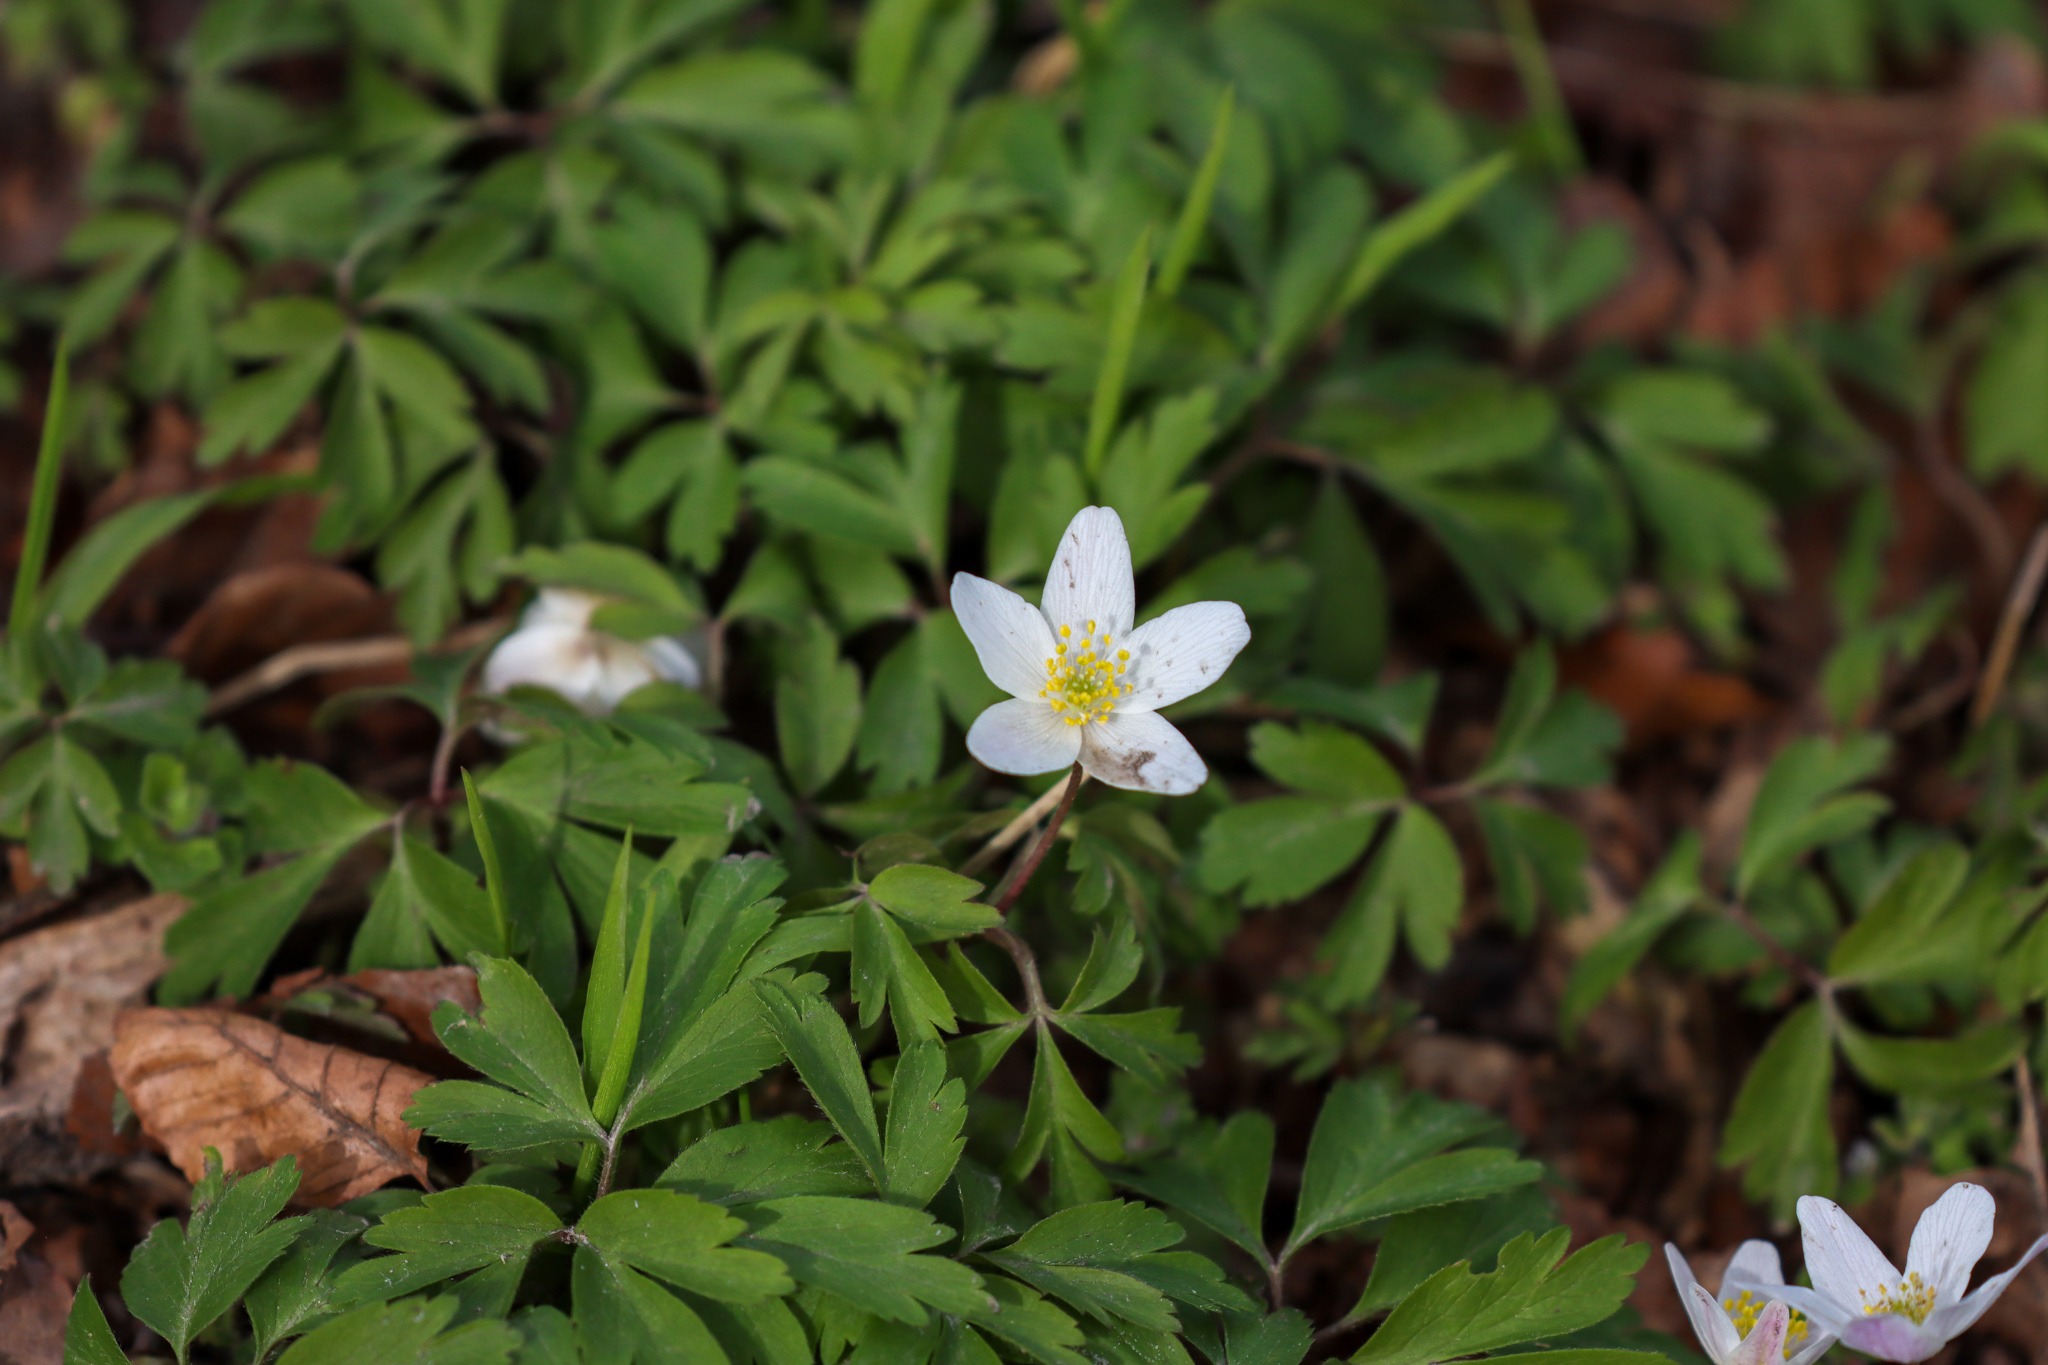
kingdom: Plantae
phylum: Tracheophyta
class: Magnoliopsida
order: Ranunculales
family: Ranunculaceae
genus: Anemone
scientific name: Anemone nemorosa
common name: Hvid anemone
